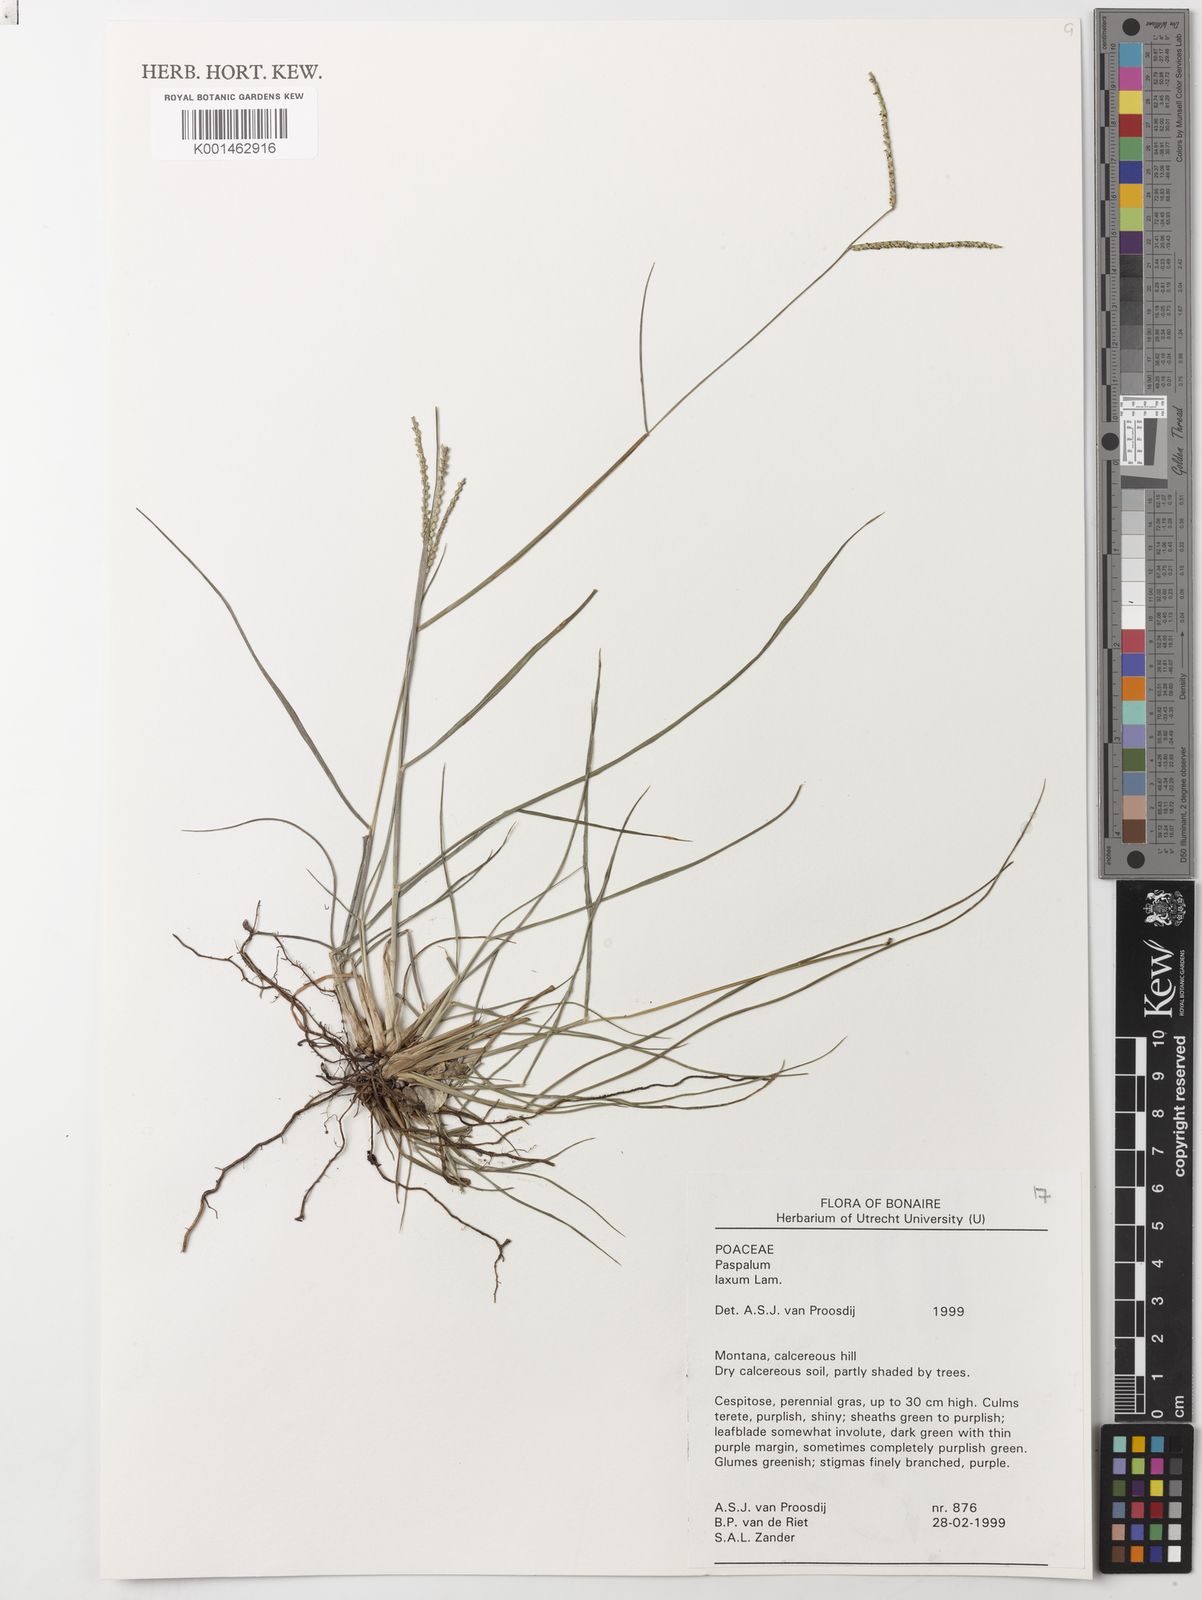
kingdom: Plantae
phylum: Tracheophyta
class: Liliopsida
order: Poales
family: Poaceae
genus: Paspalum
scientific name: Paspalum laxum
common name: Coconut paspalum
